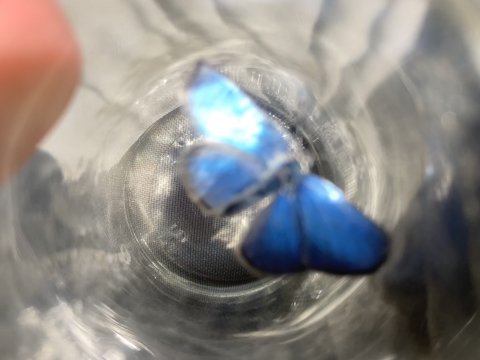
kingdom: Animalia
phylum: Arthropoda
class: Insecta
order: Lepidoptera
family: Lycaenidae
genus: Glaucopsyche
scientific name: Glaucopsyche lygdamus
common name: Silvery Blue
